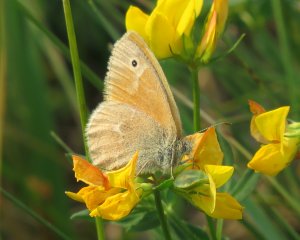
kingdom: Animalia
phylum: Arthropoda
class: Insecta
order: Lepidoptera
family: Nymphalidae
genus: Coenonympha
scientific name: Coenonympha tullia
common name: Large Heath
